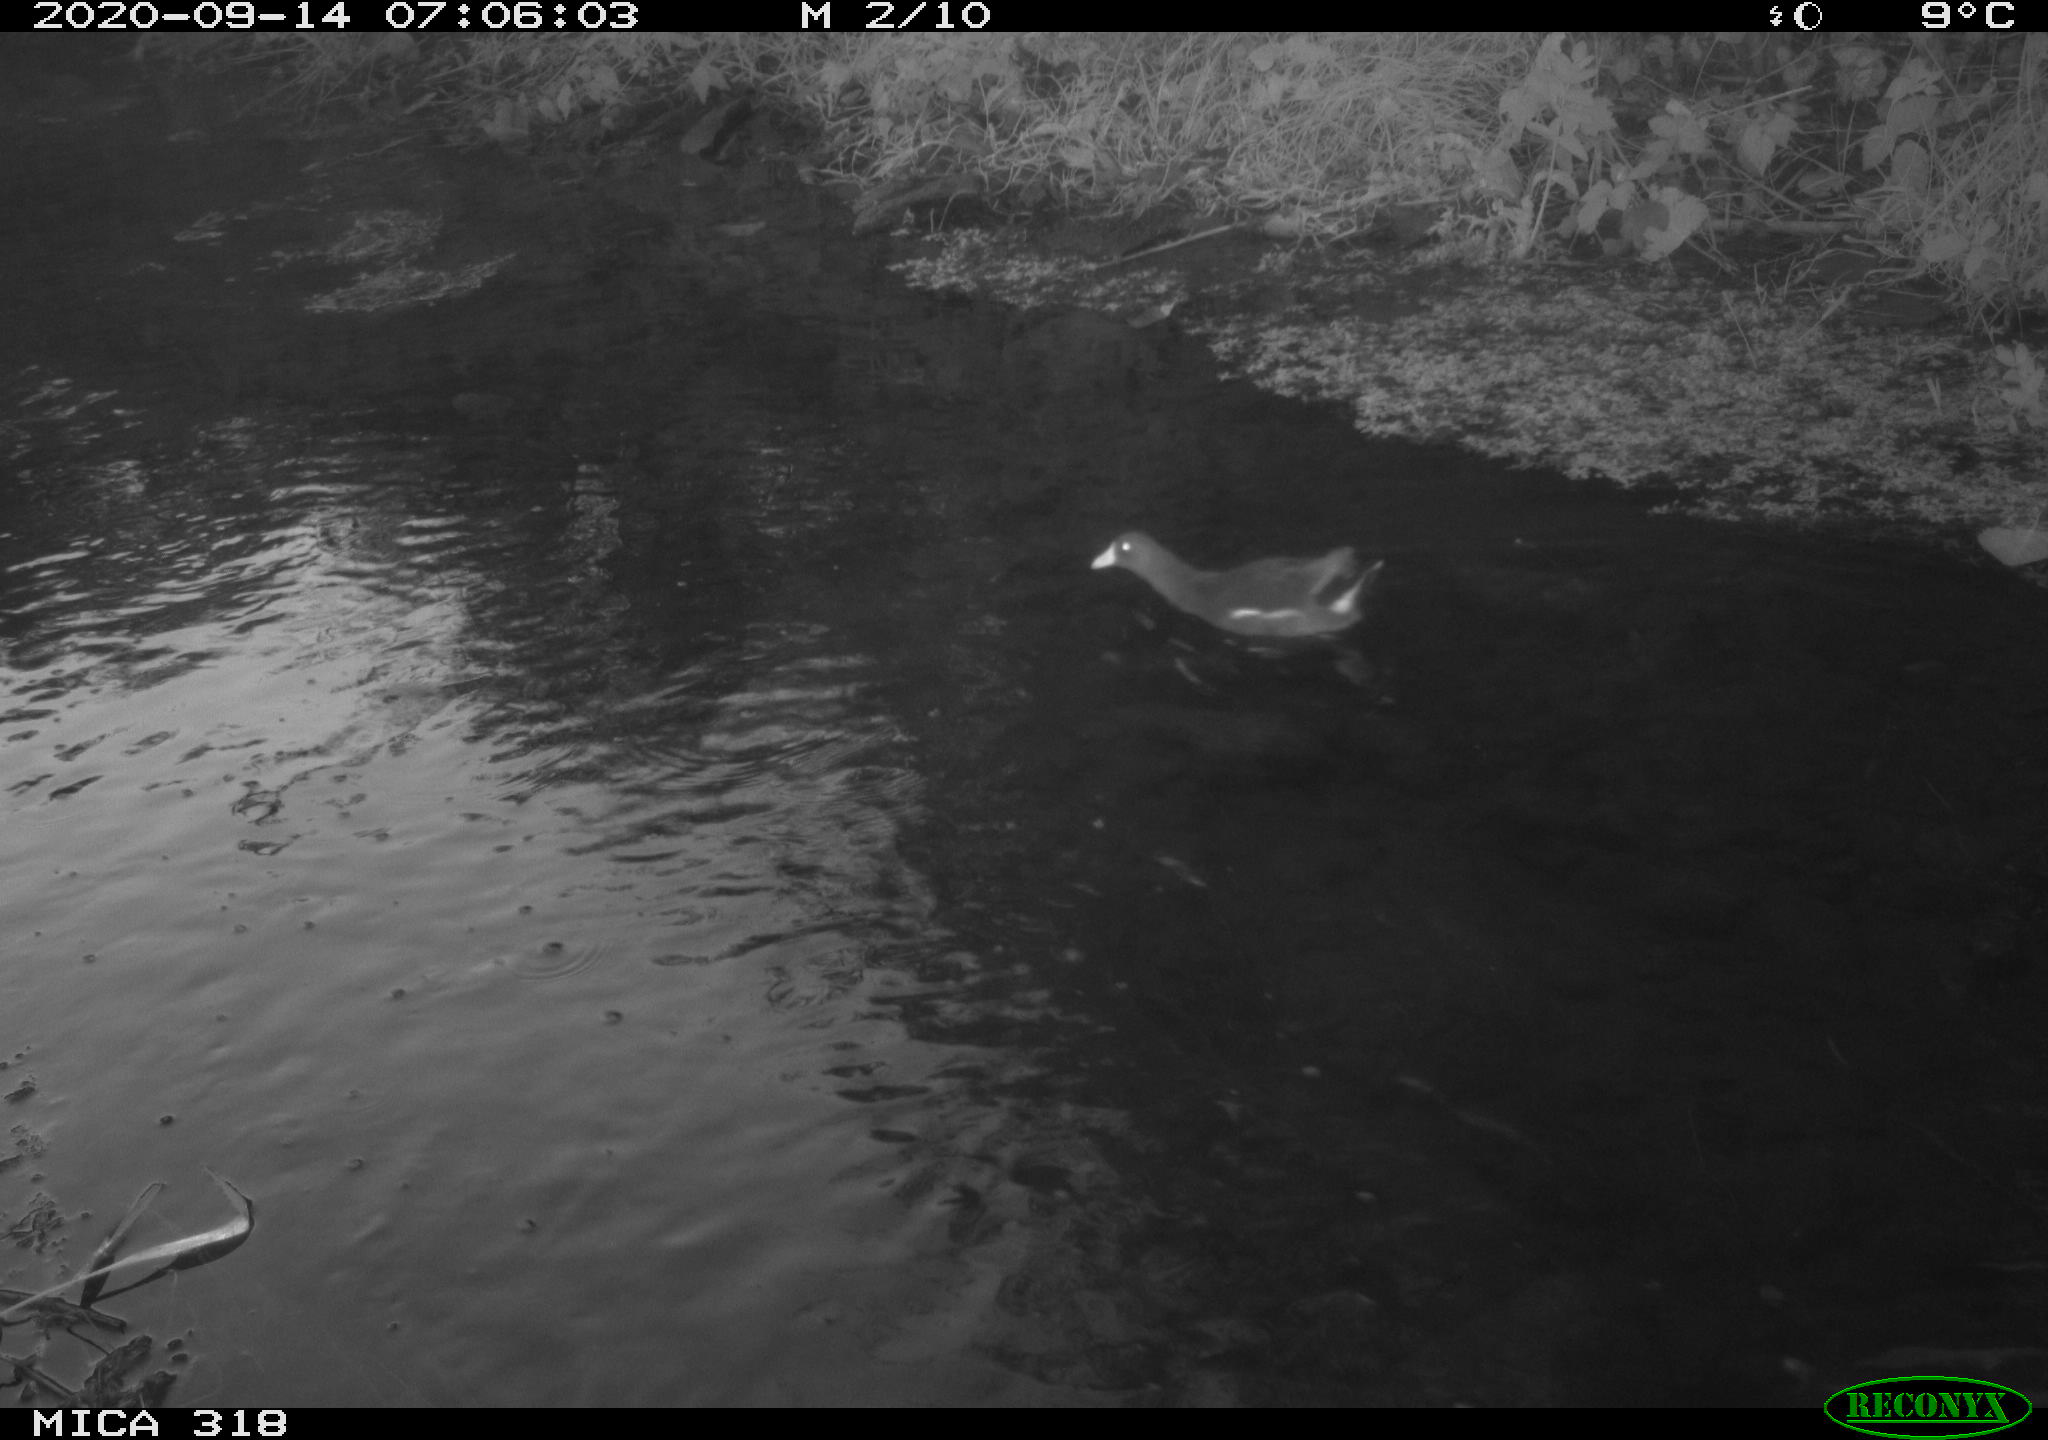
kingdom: Animalia
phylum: Chordata
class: Aves
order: Gruiformes
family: Rallidae
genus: Gallinula
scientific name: Gallinula chloropus
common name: Common moorhen
